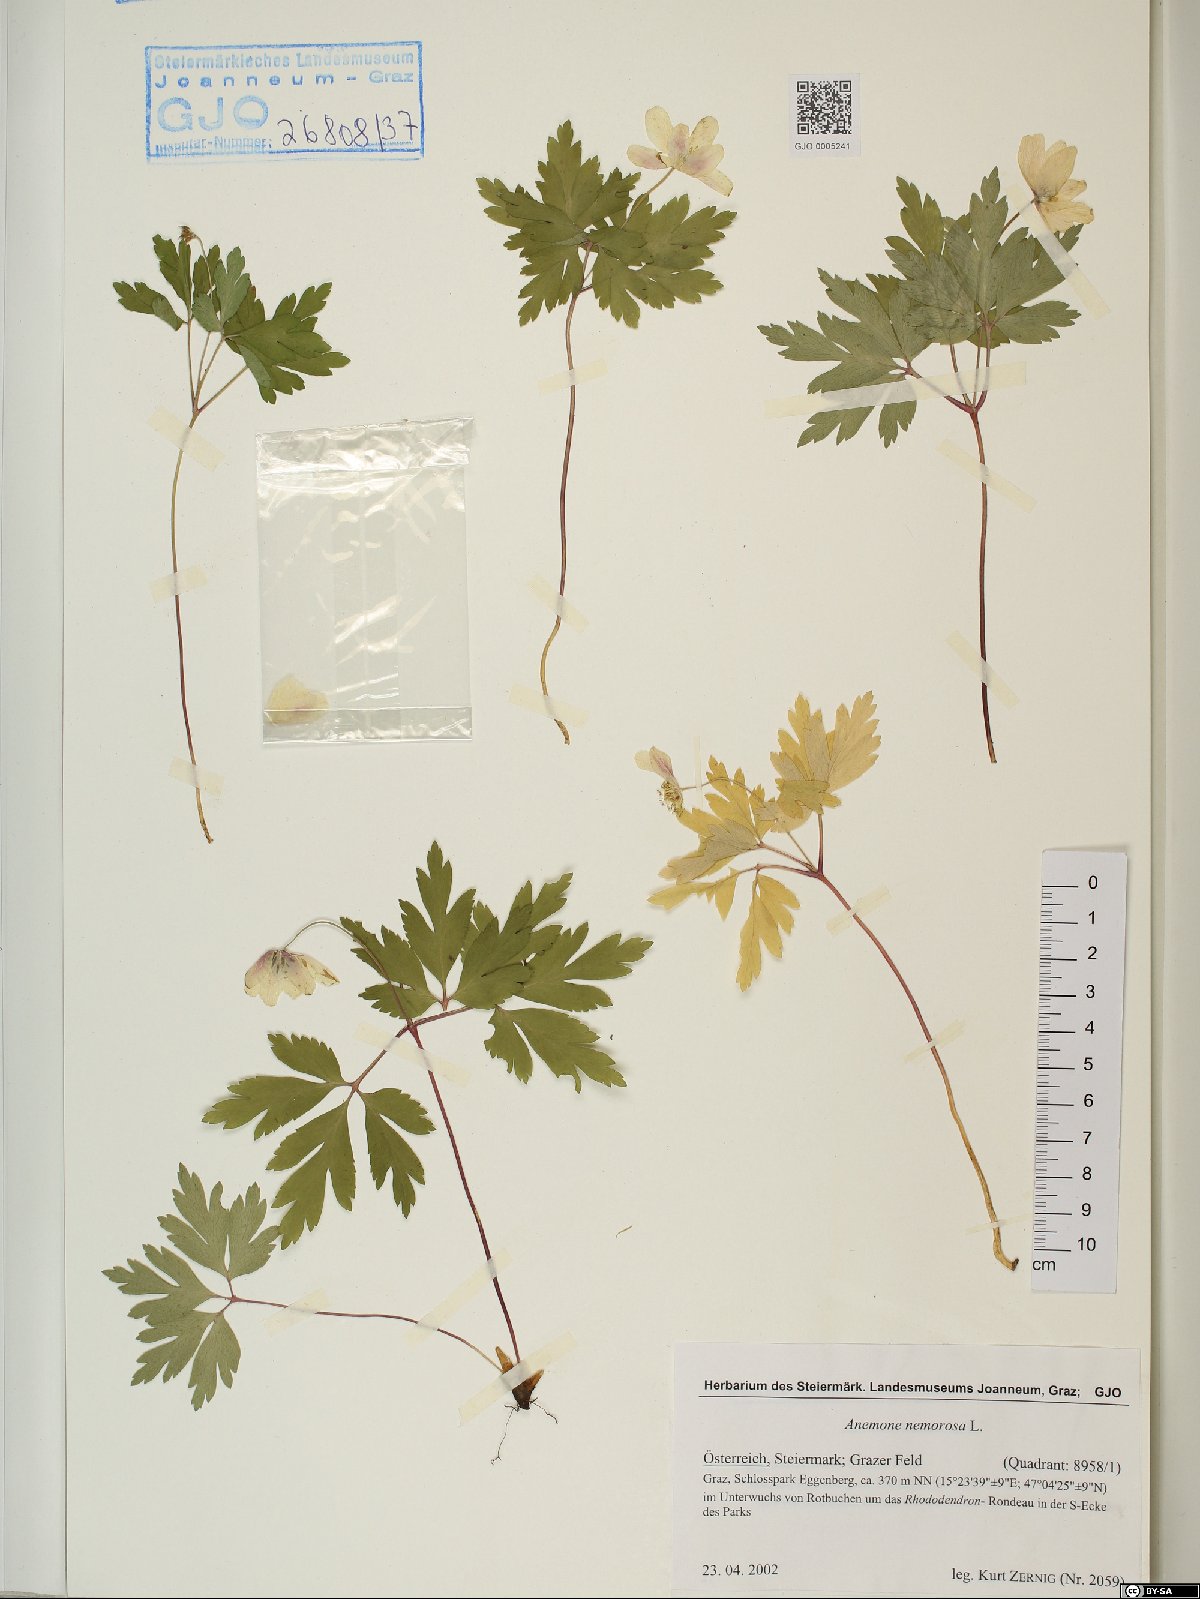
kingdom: Plantae
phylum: Tracheophyta
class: Magnoliopsida
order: Ranunculales
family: Ranunculaceae
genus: Anemone
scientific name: Anemone nemorosa
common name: Wood anemone
